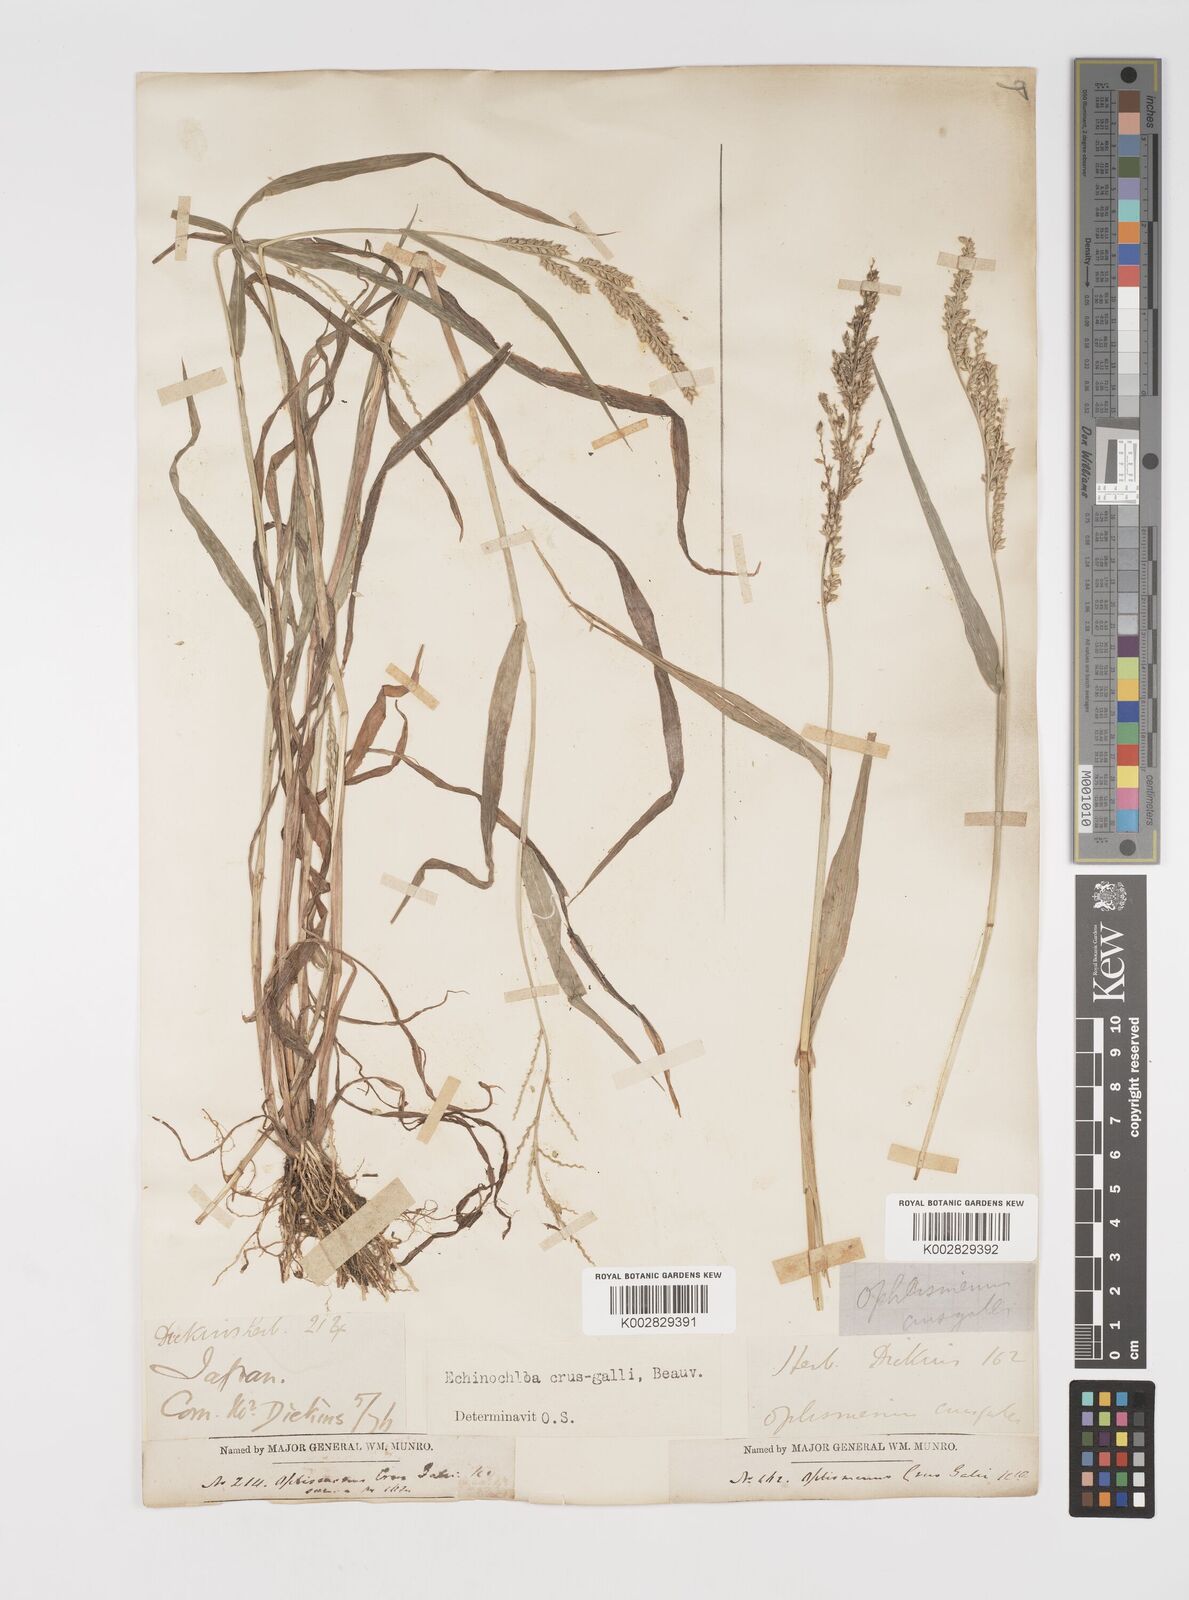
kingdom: Plantae
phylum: Tracheophyta
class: Liliopsida
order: Poales
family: Poaceae
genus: Echinochloa
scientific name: Echinochloa crus-galli
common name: Cockspur
